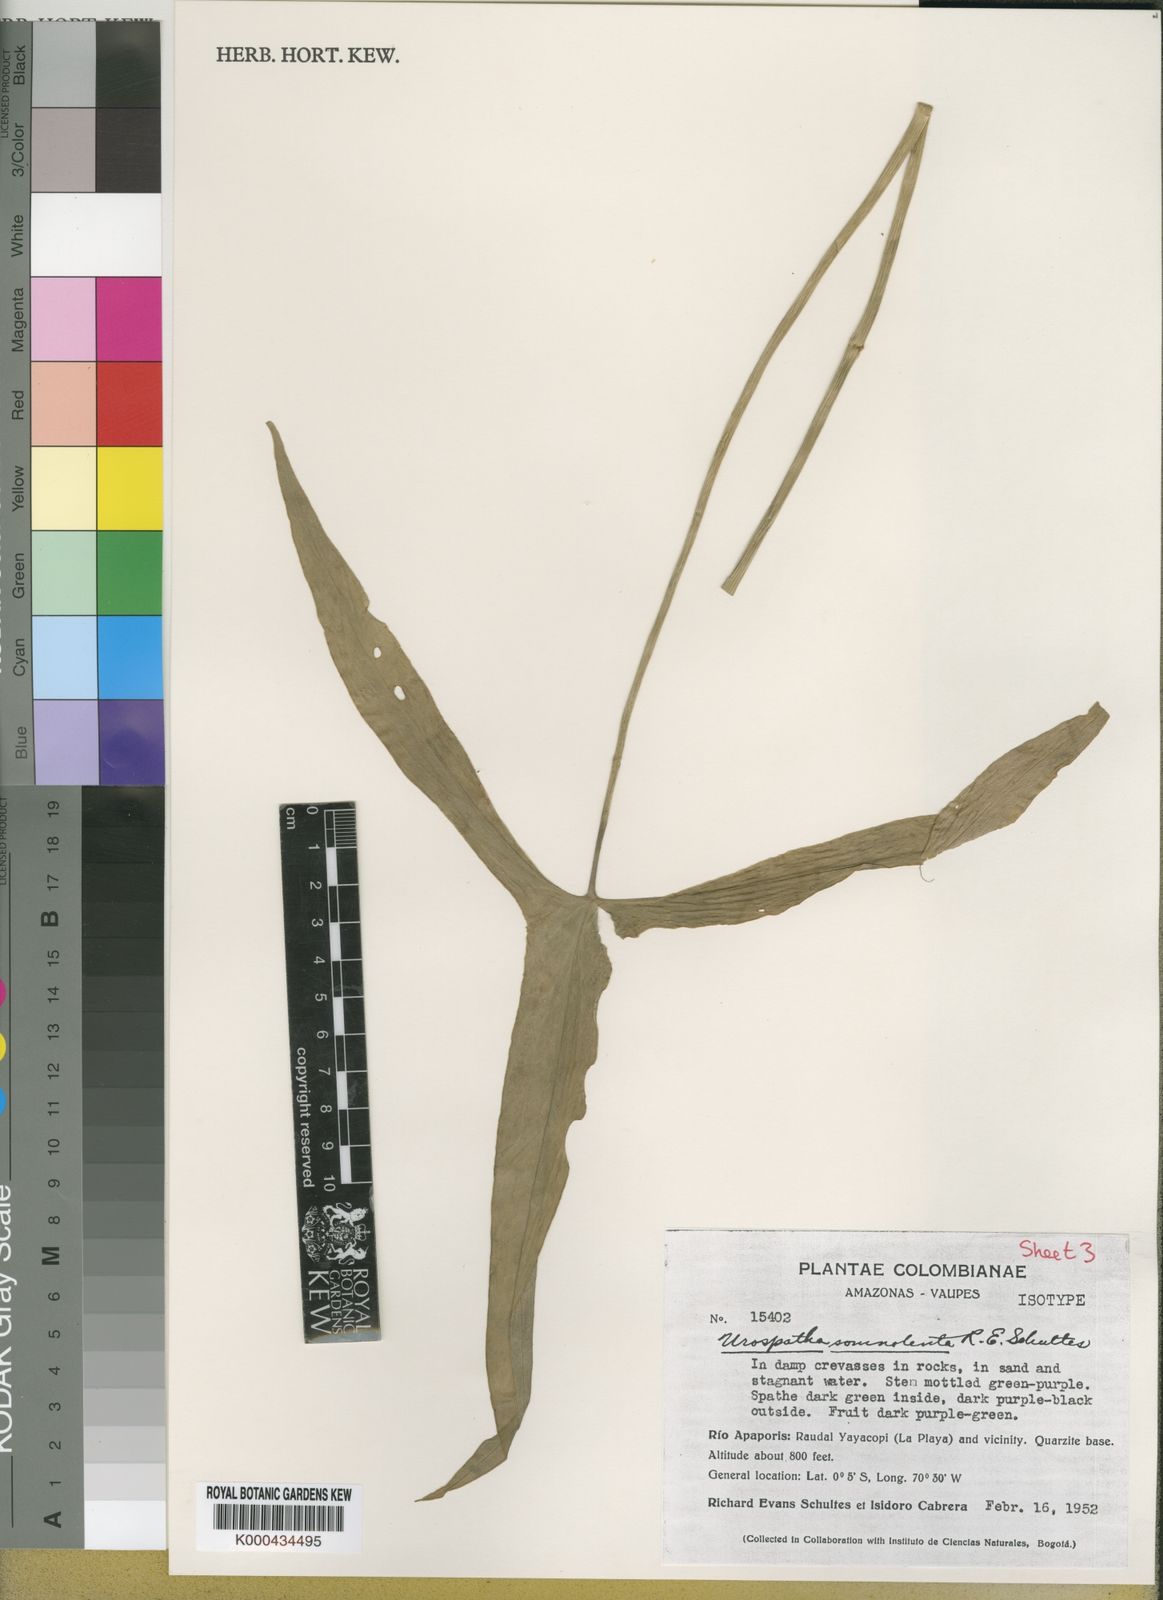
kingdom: Plantae
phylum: Tracheophyta
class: Liliopsida
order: Alismatales
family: Araceae
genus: Urospatha
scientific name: Urospatha somnolenta
